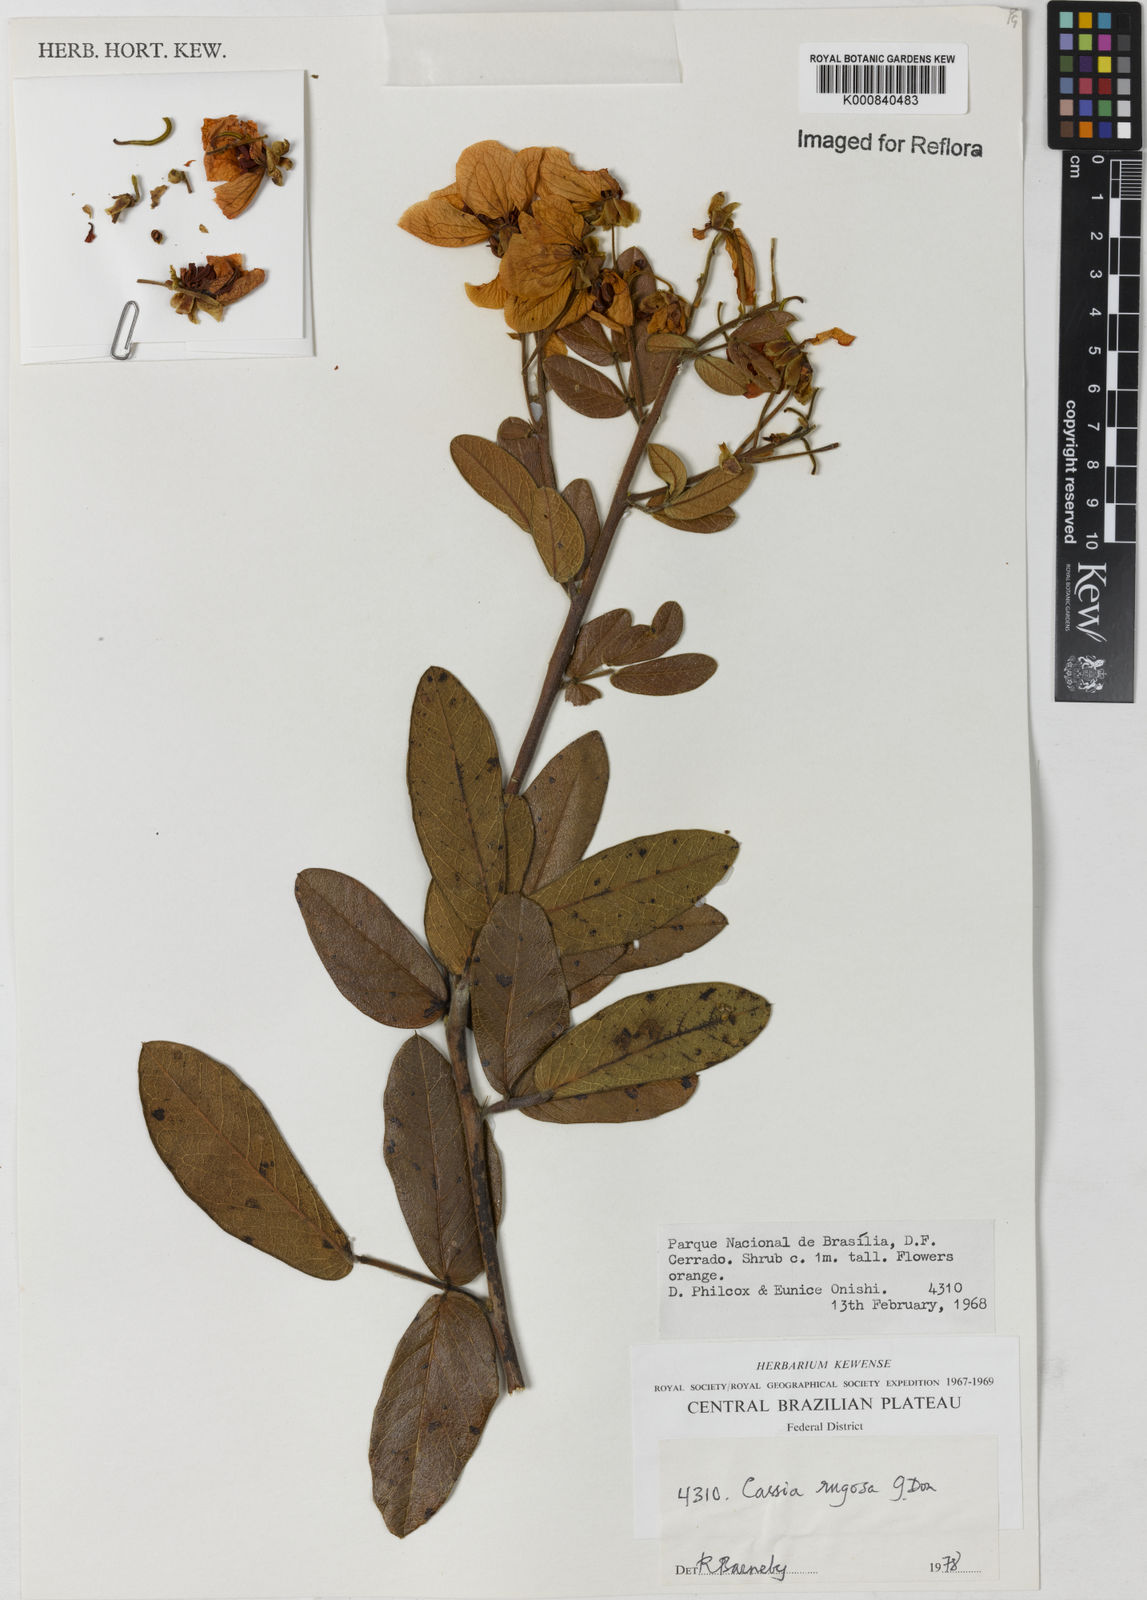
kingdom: Plantae
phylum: Tracheophyta
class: Magnoliopsida
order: Fabales
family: Fabaceae
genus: Senna
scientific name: Senna rugosa
